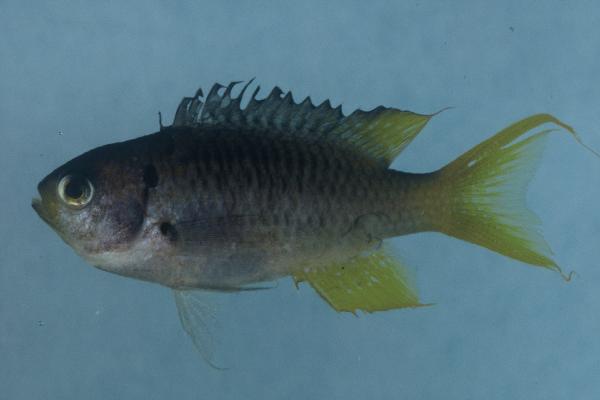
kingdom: Animalia
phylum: Chordata
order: Perciformes
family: Pomacentridae
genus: Neopomacentrus
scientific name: Neopomacentrus cyanomos
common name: Regal demoiselle
